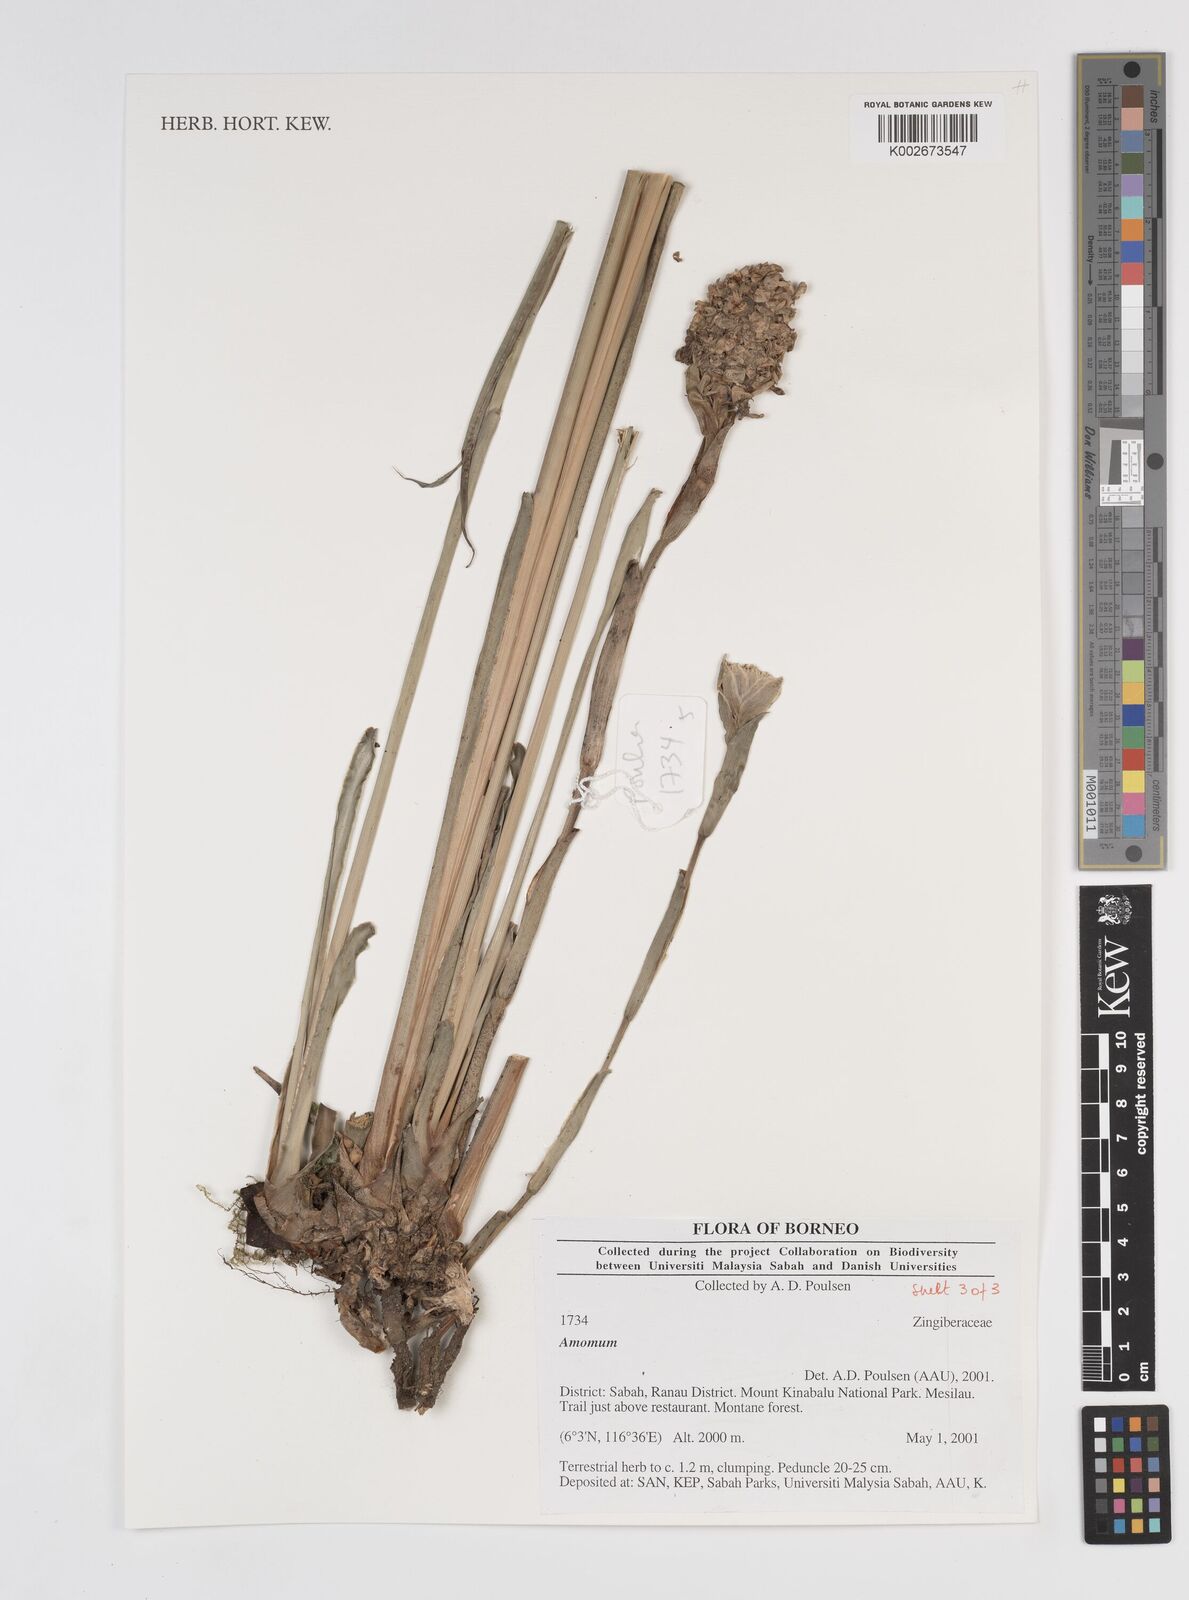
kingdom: Plantae
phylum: Tracheophyta
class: Liliopsida
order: Zingiberales
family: Zingiberaceae
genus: Amomum
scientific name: Amomum
